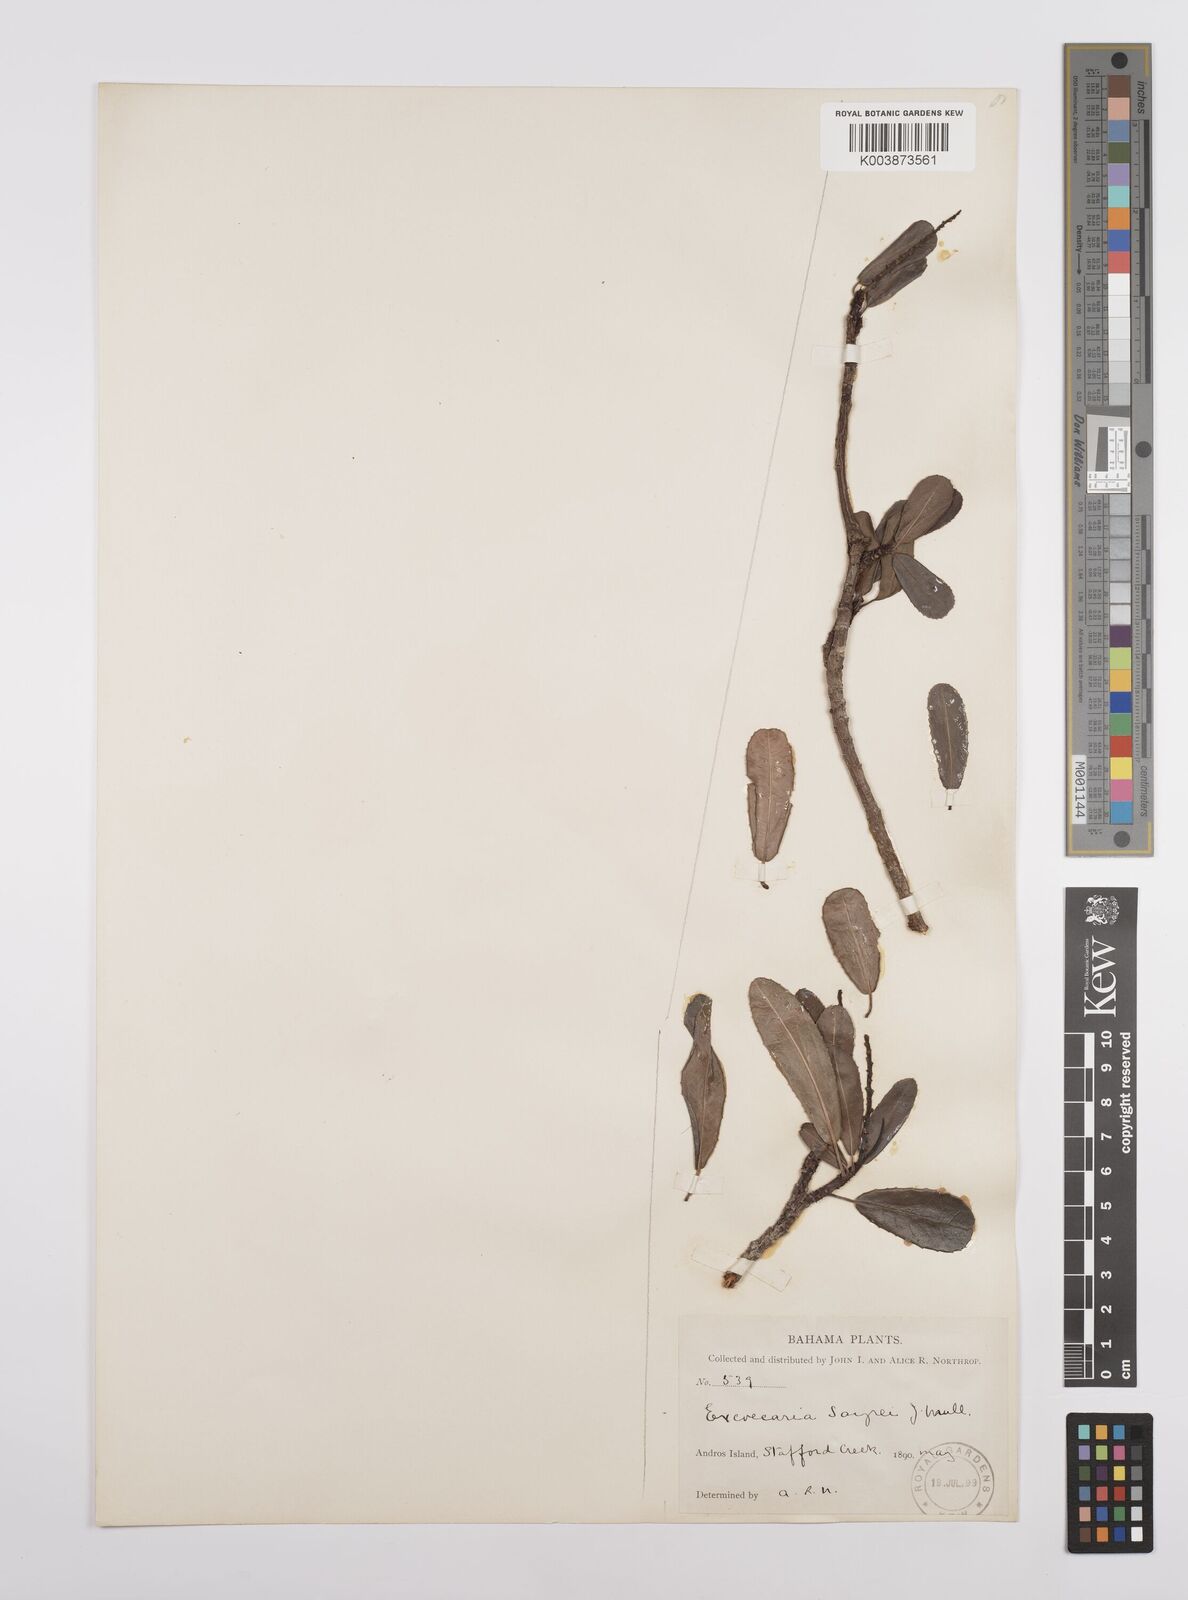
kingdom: Plantae
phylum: Tracheophyta
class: Magnoliopsida
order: Malpighiales
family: Euphorbiaceae
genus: Grimmeodendron
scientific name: Grimmeodendron eglandulosum
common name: Grimm’s tree
